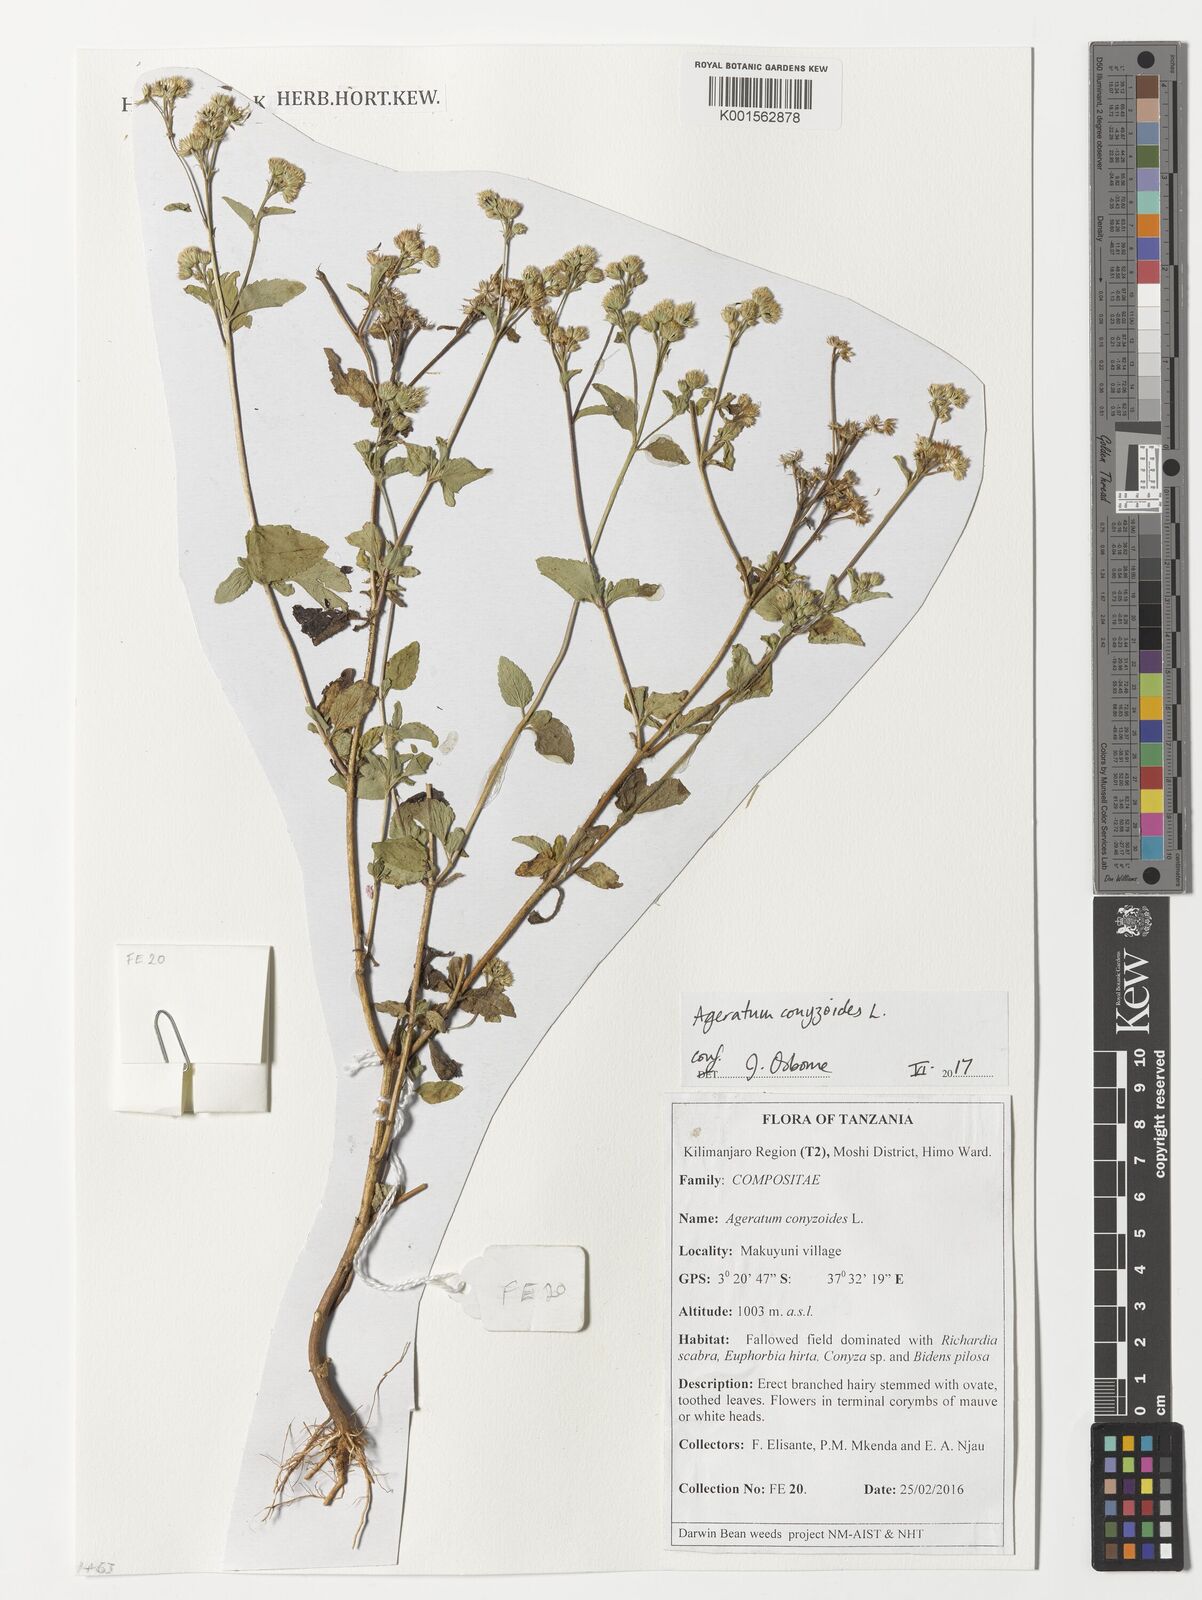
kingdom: Plantae
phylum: Tracheophyta
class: Magnoliopsida
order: Asterales
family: Asteraceae
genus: Ageratum
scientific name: Ageratum conyzoides
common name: Tropical whiteweed
